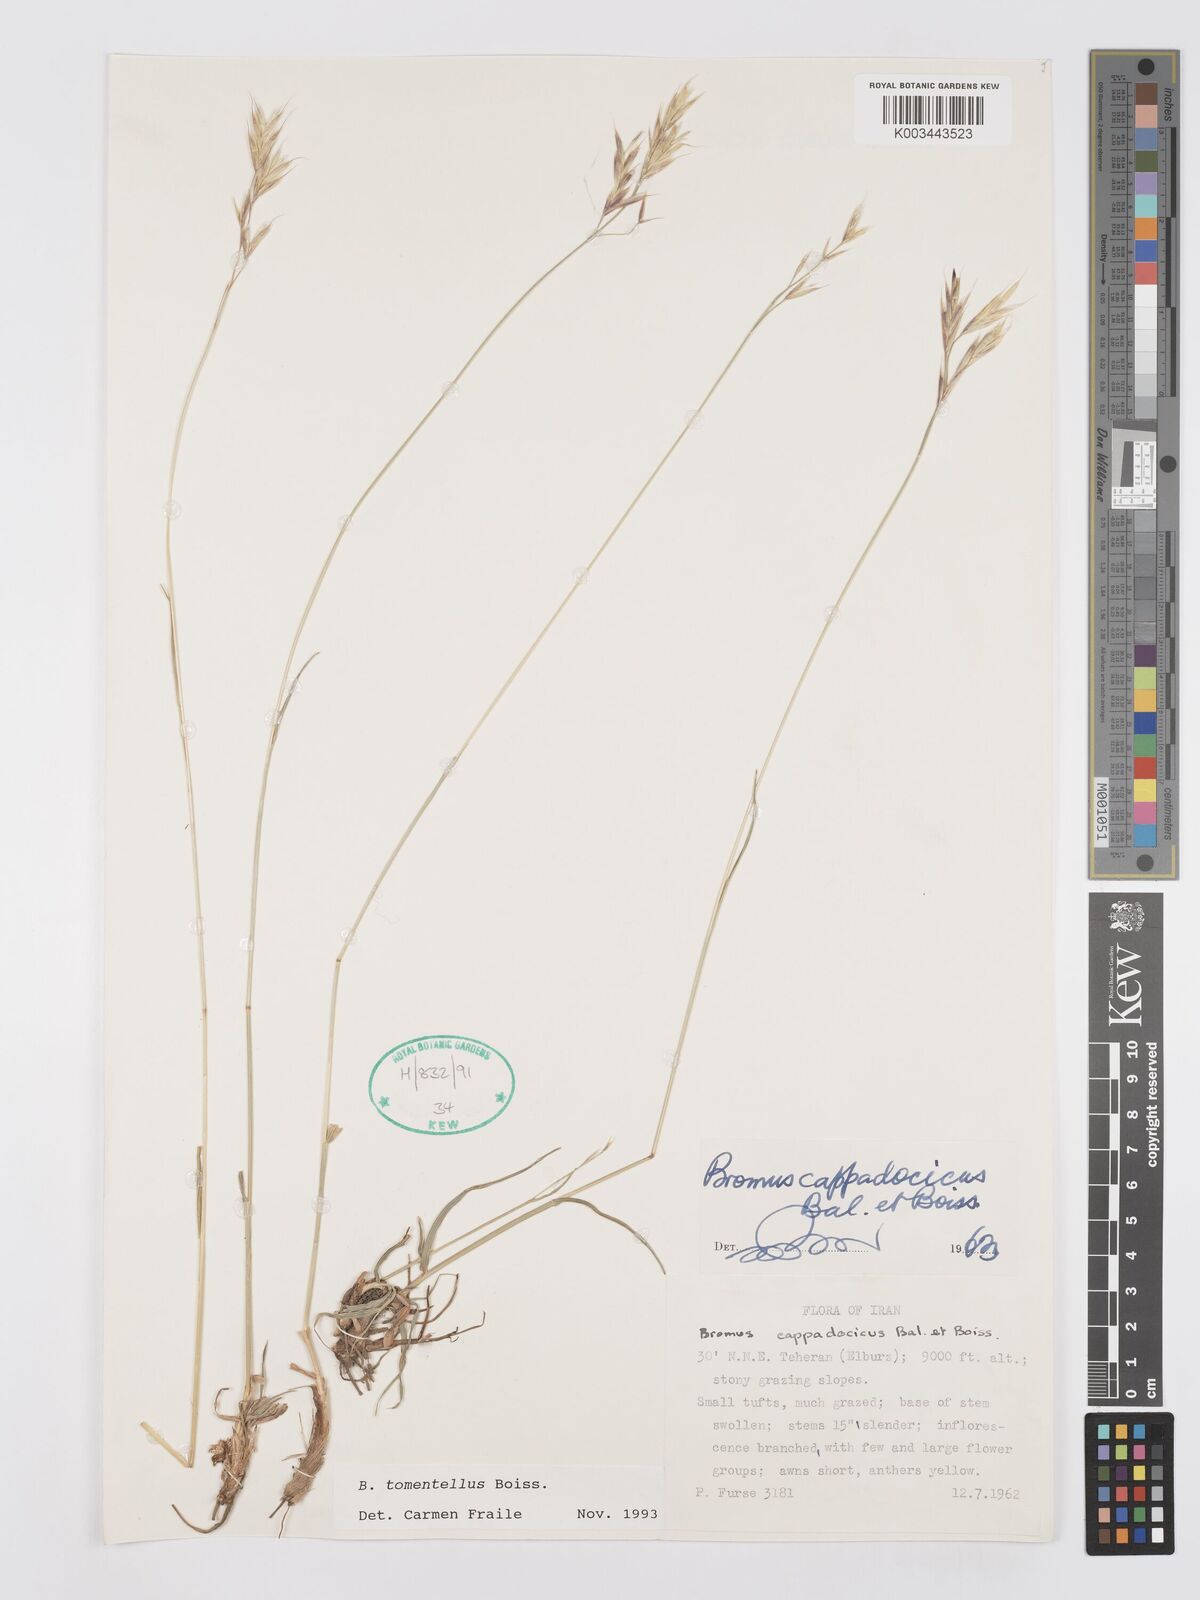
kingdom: Plantae
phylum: Tracheophyta
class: Liliopsida
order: Poales
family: Poaceae
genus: Bromus
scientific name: Bromus tomentellus
